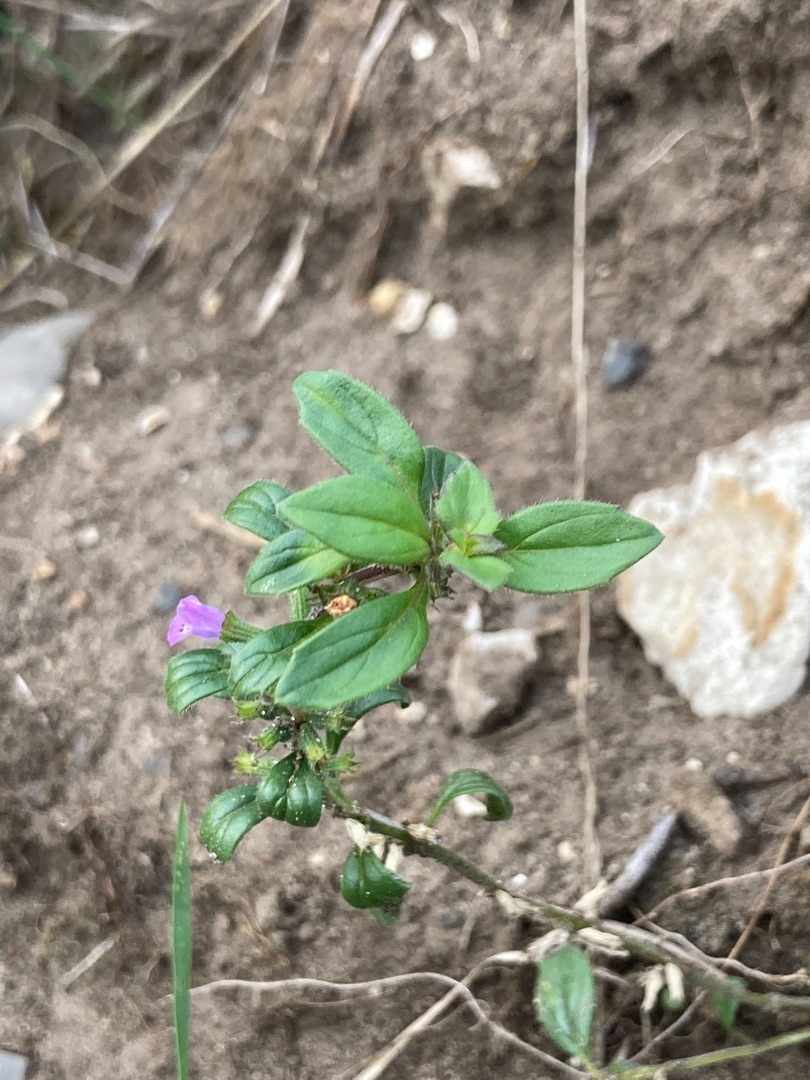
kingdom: Plantae
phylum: Tracheophyta
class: Magnoliopsida
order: Lamiales
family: Lamiaceae
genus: Clinopodium
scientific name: Clinopodium acinos
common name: Voldtimian
